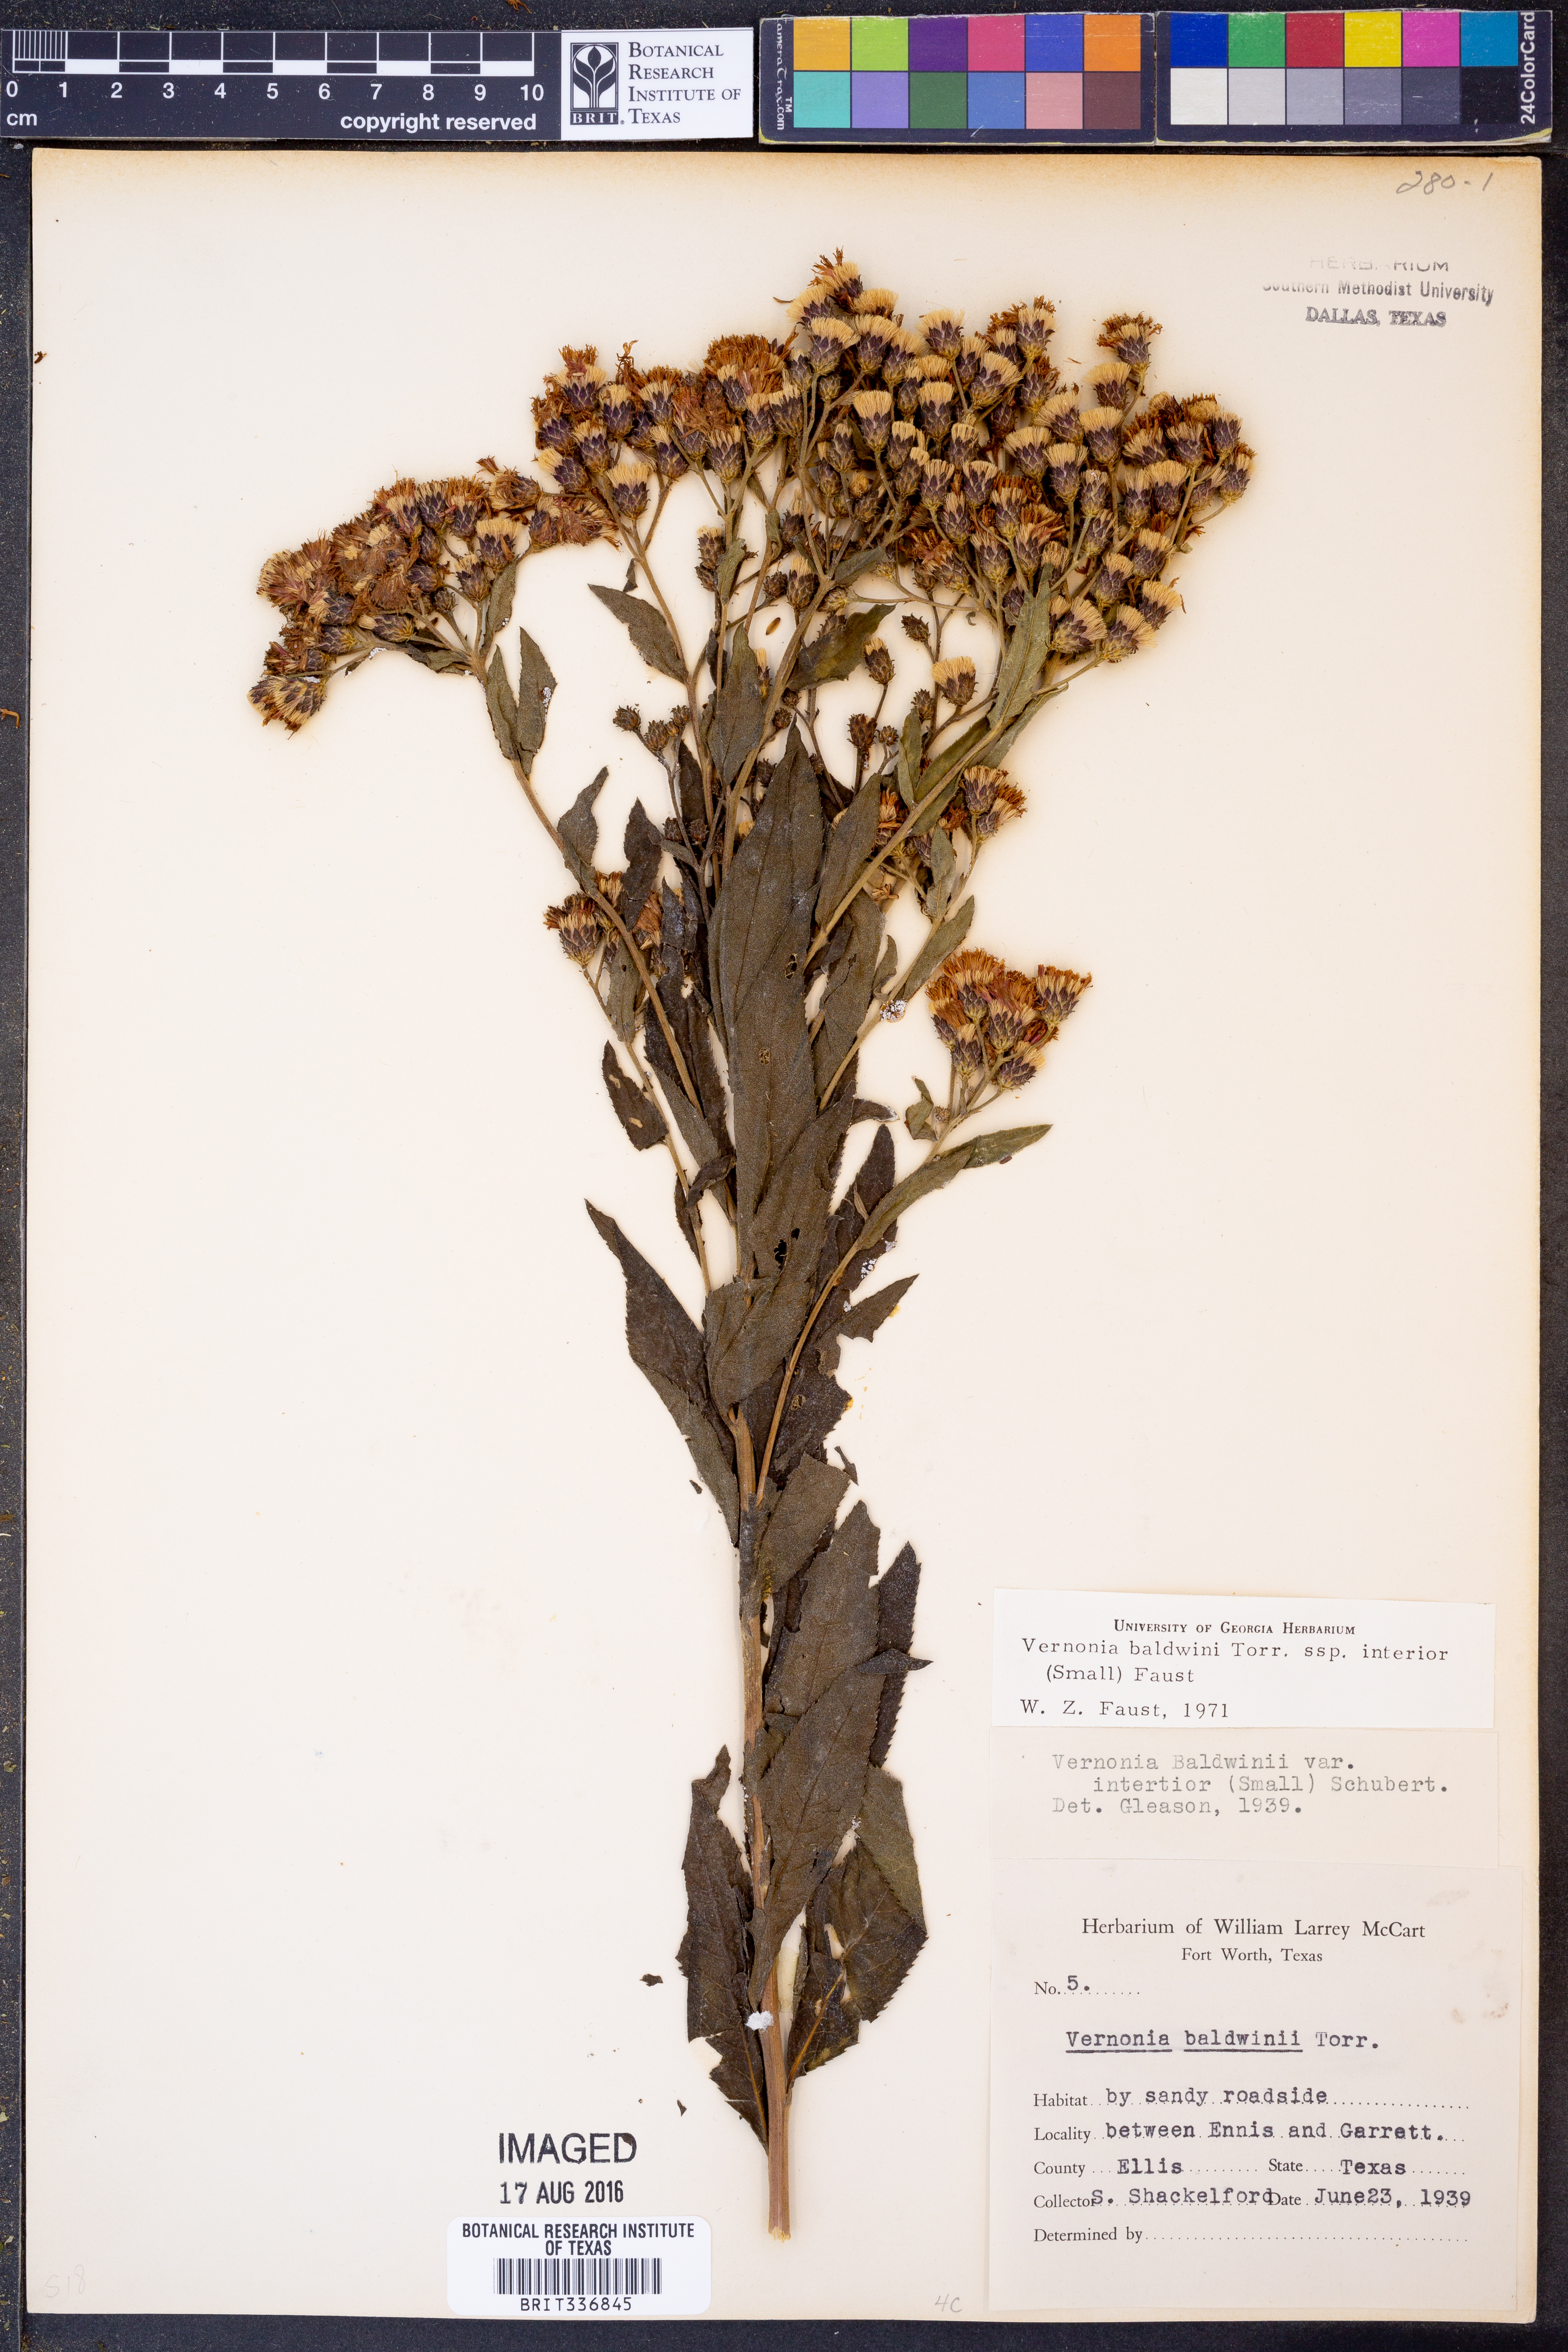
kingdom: Plantae
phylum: Tracheophyta
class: Magnoliopsida
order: Asterales
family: Asteraceae
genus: Vernonia
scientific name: Vernonia baldwinii
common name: Western ironweed
